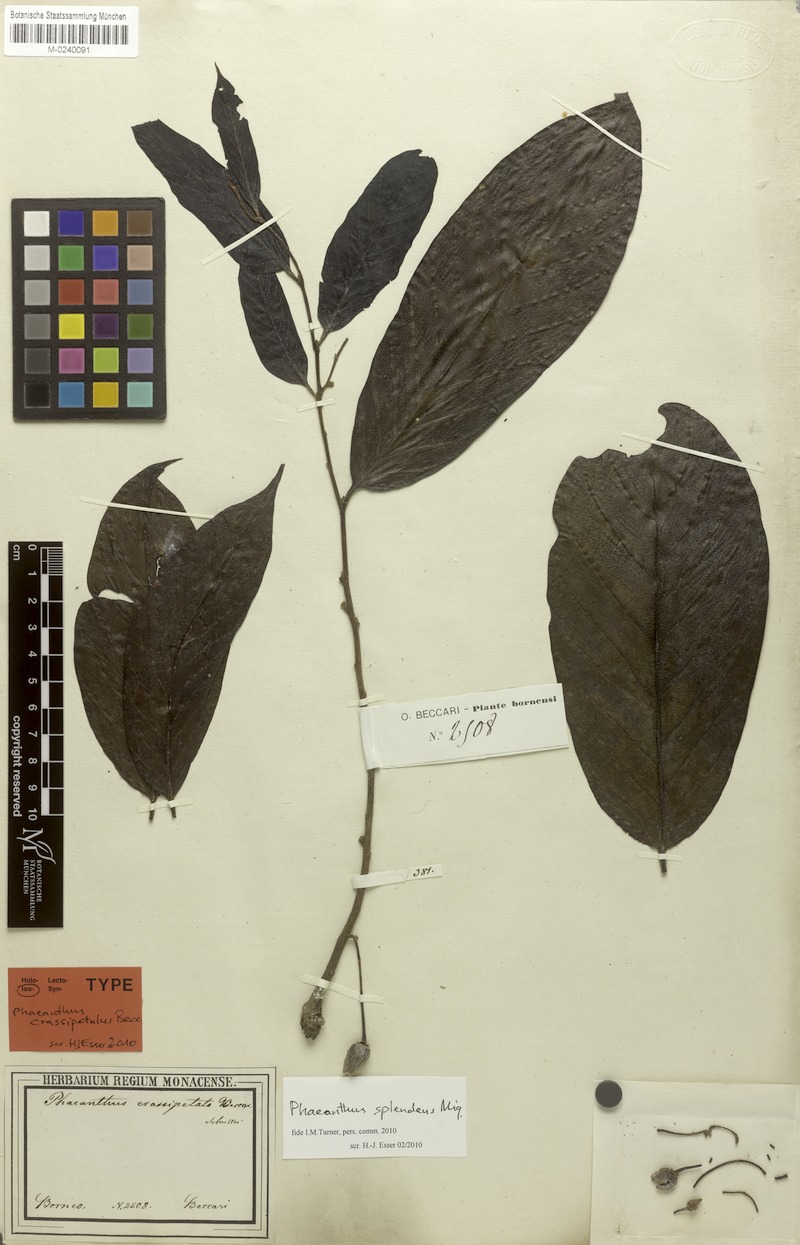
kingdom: Plantae
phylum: Tracheophyta
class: Magnoliopsida
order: Magnoliales
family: Annonaceae
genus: Phaeanthus
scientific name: Phaeanthus splendens
